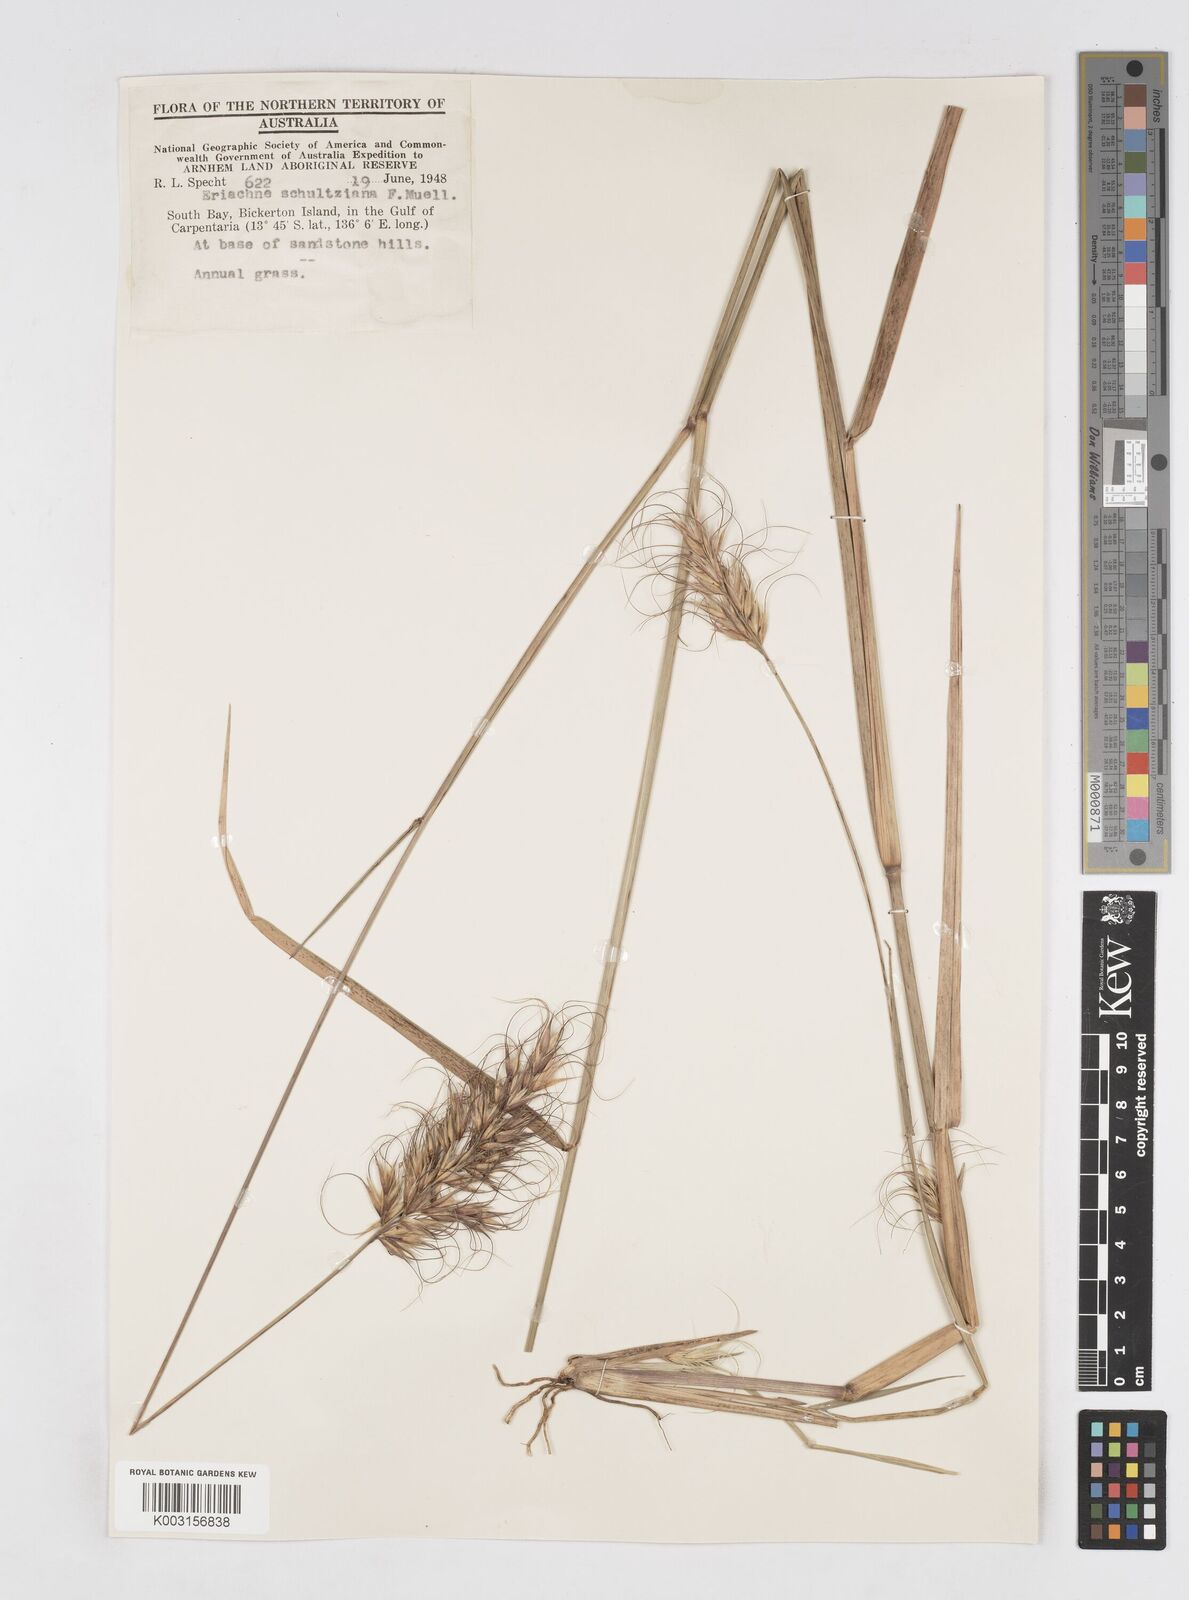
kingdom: Plantae
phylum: Tracheophyta
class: Liliopsida
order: Poales
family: Poaceae
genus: Eriachne
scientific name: Eriachne schultziana
